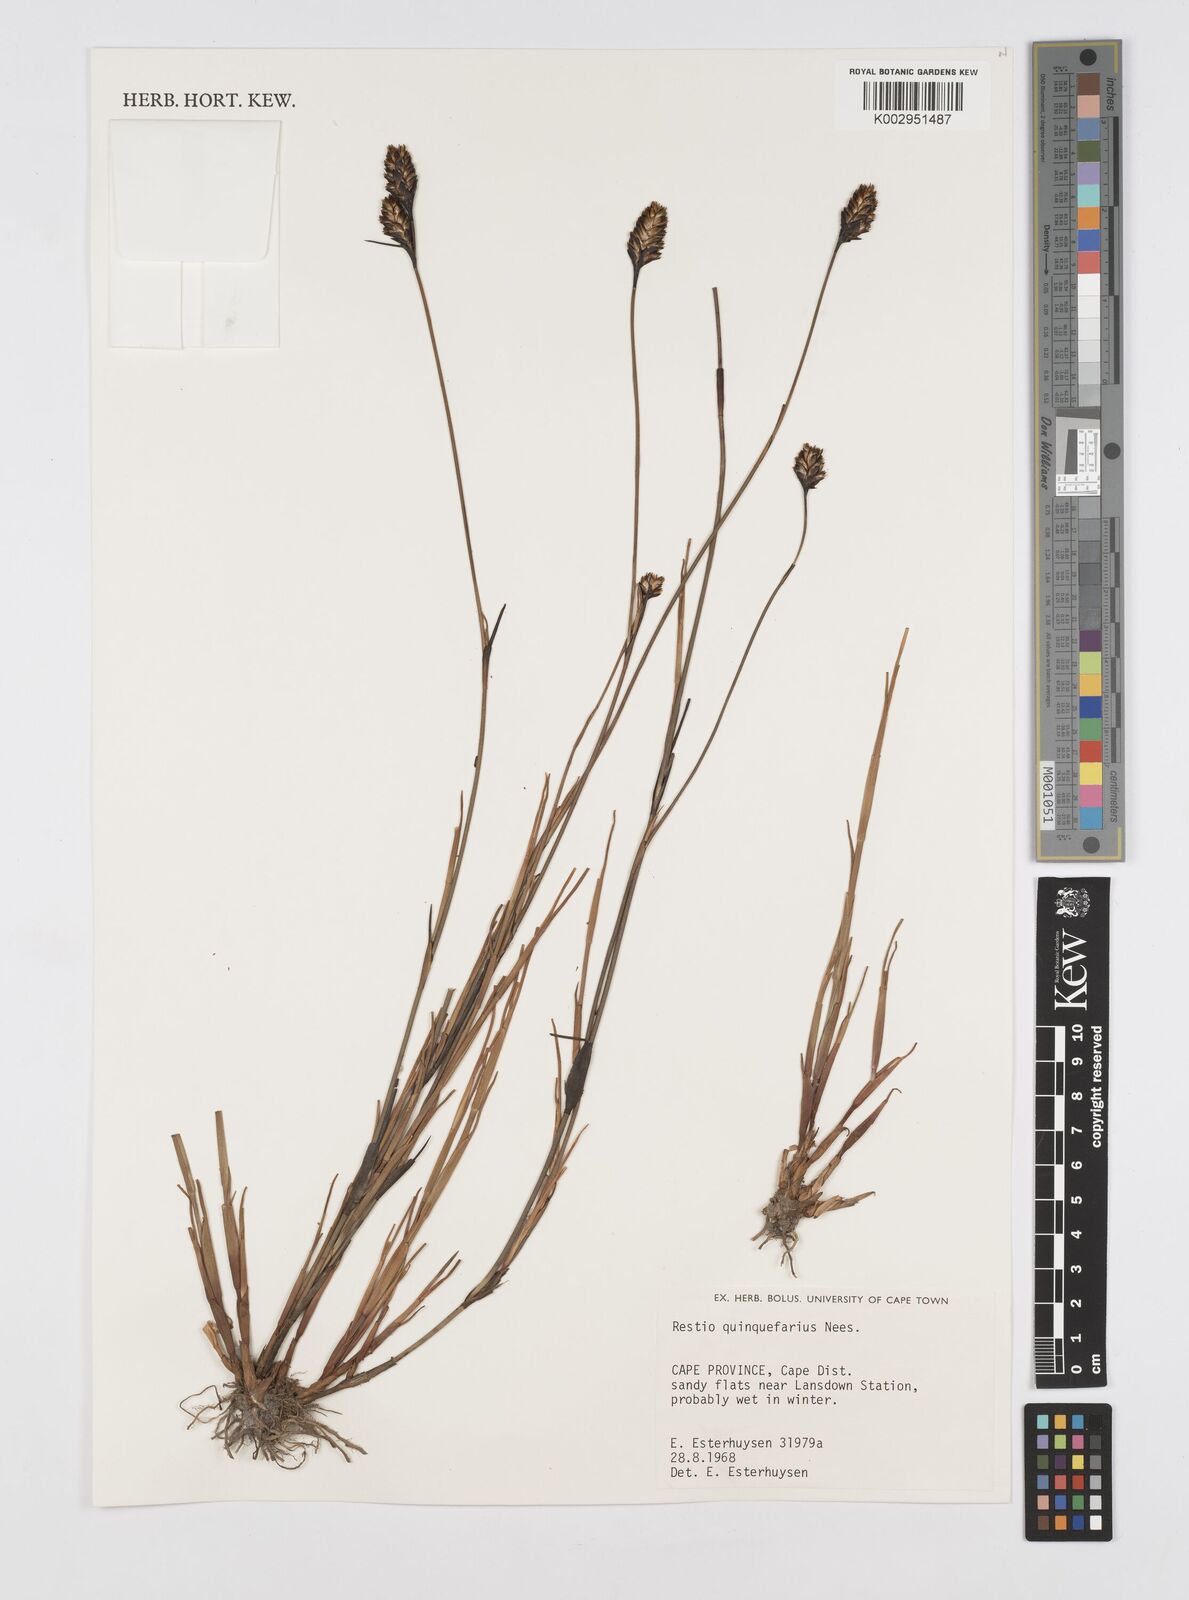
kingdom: Plantae
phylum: Tracheophyta
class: Liliopsida
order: Poales
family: Restionaceae
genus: Restio
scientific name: Restio quinquefarius
